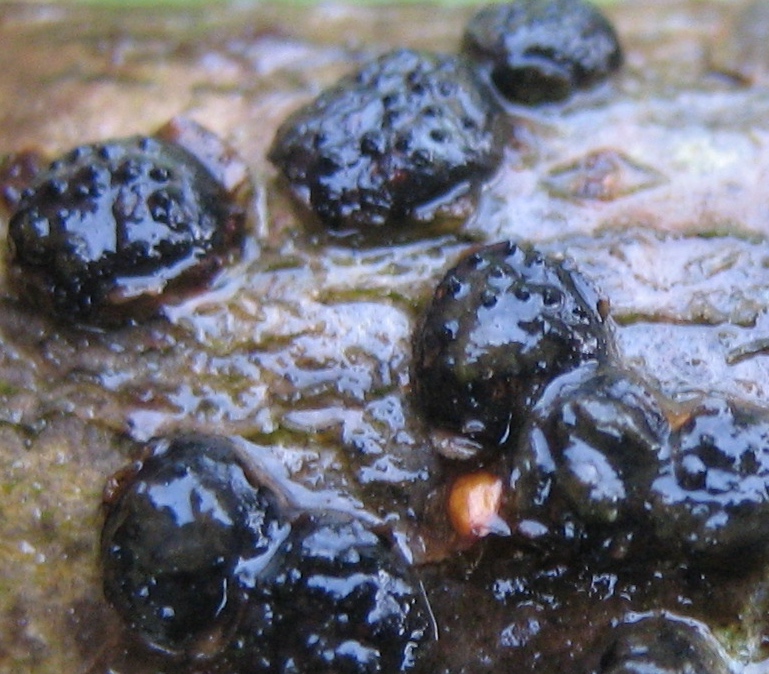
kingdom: Fungi
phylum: Ascomycota
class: Sordariomycetes
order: Xylariales
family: Diatrypaceae
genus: Diatrypella
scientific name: Diatrypella quercina
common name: ege-kulskorpe
